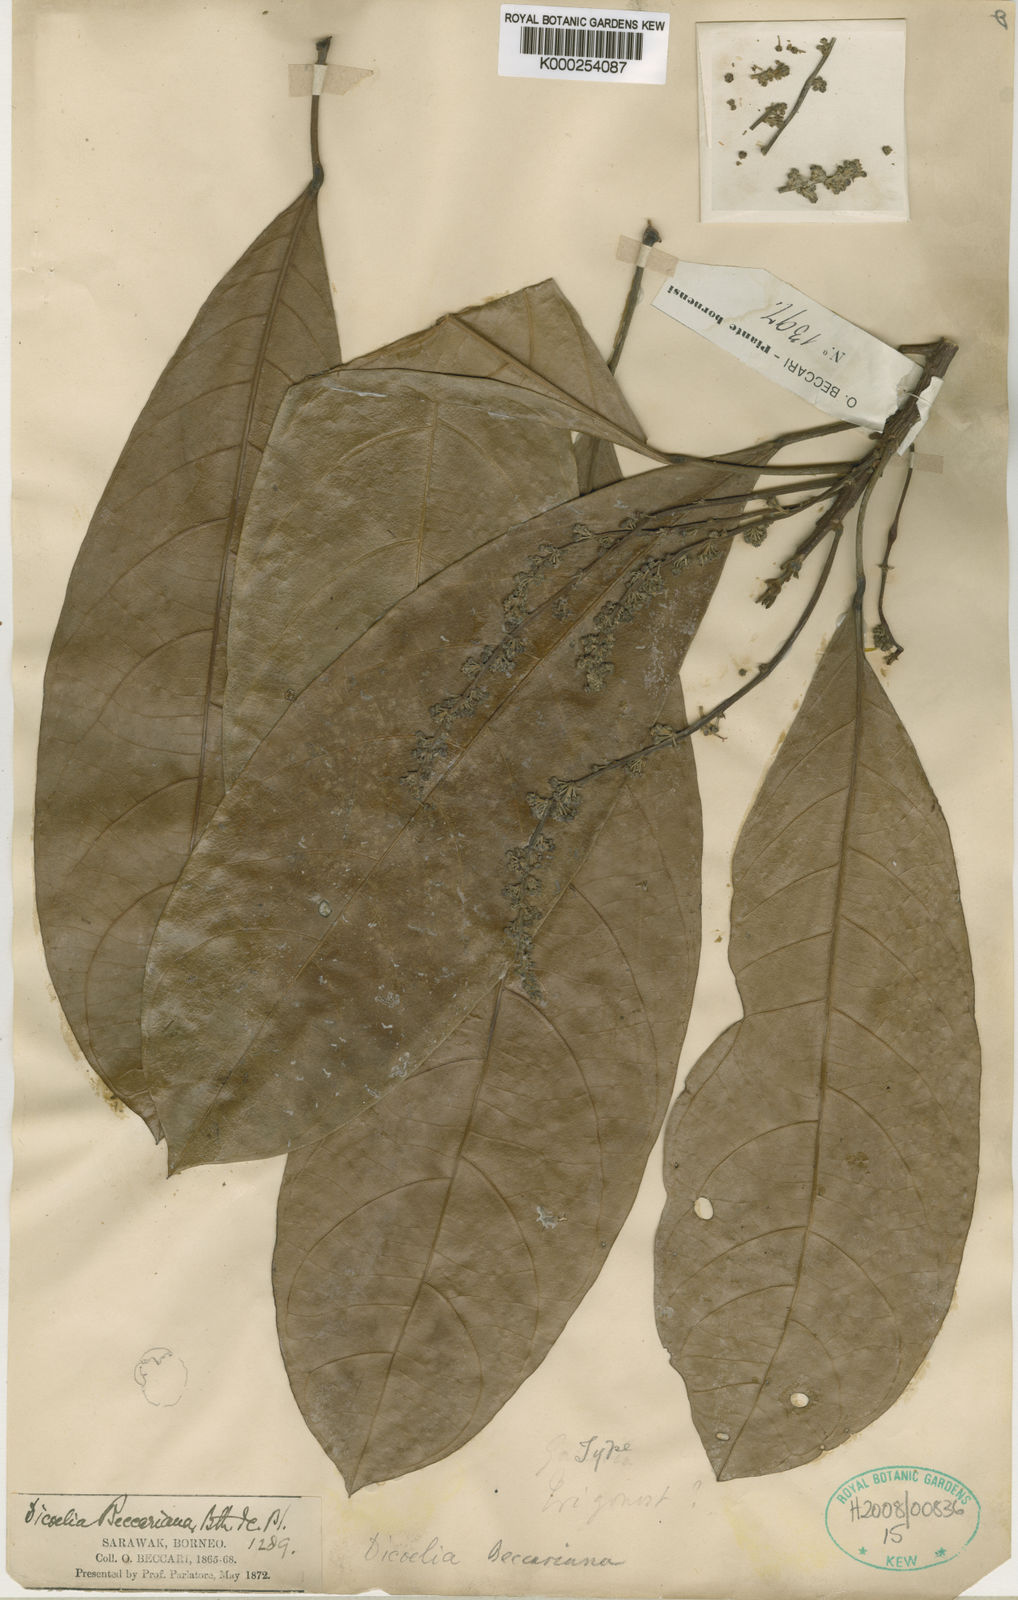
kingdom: Plantae
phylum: Tracheophyta
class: Magnoliopsida
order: Malpighiales
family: Phyllanthaceae
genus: Dicoelia
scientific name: Dicoelia beccariana
